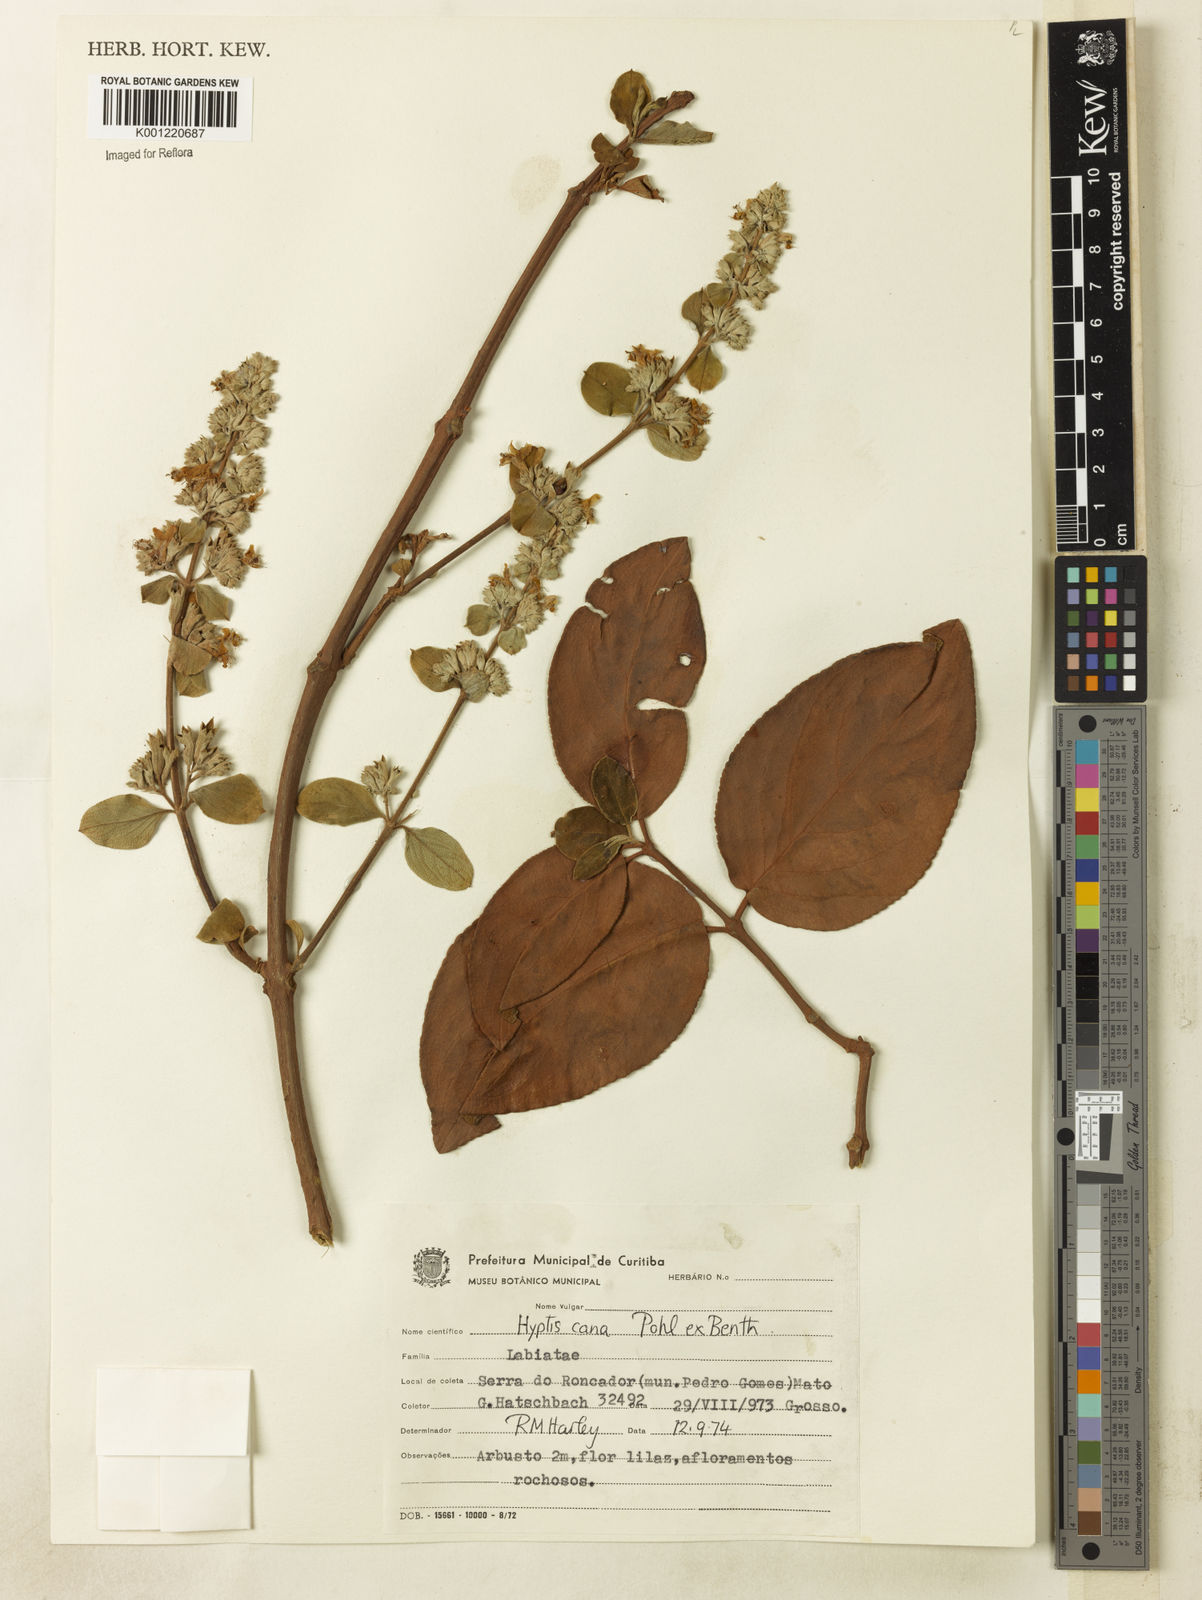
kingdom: Plantae
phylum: Tracheophyta
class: Magnoliopsida
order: Lamiales
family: Lamiaceae
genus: Hyptidendron
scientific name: Hyptidendron canum
